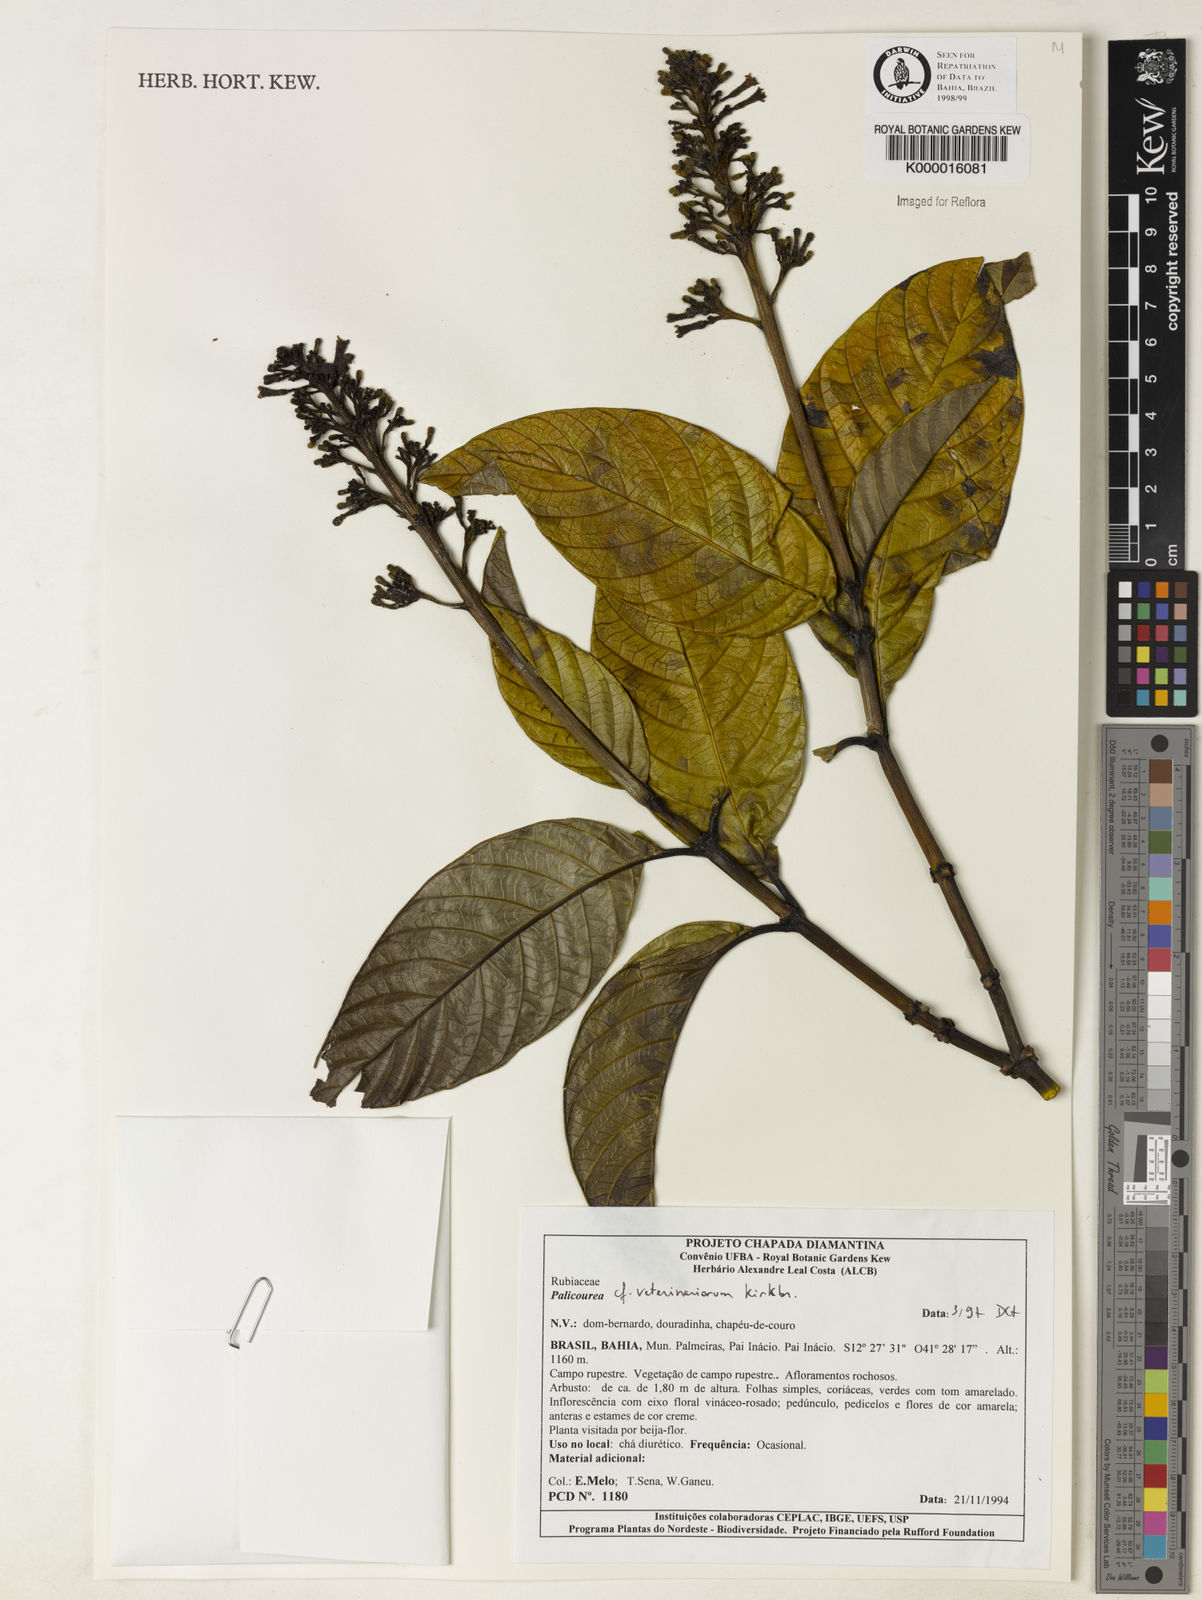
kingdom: Plantae
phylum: Tracheophyta
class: Magnoliopsida
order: Gentianales
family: Rubiaceae
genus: Palicourea
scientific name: Palicourea veterinariorum
